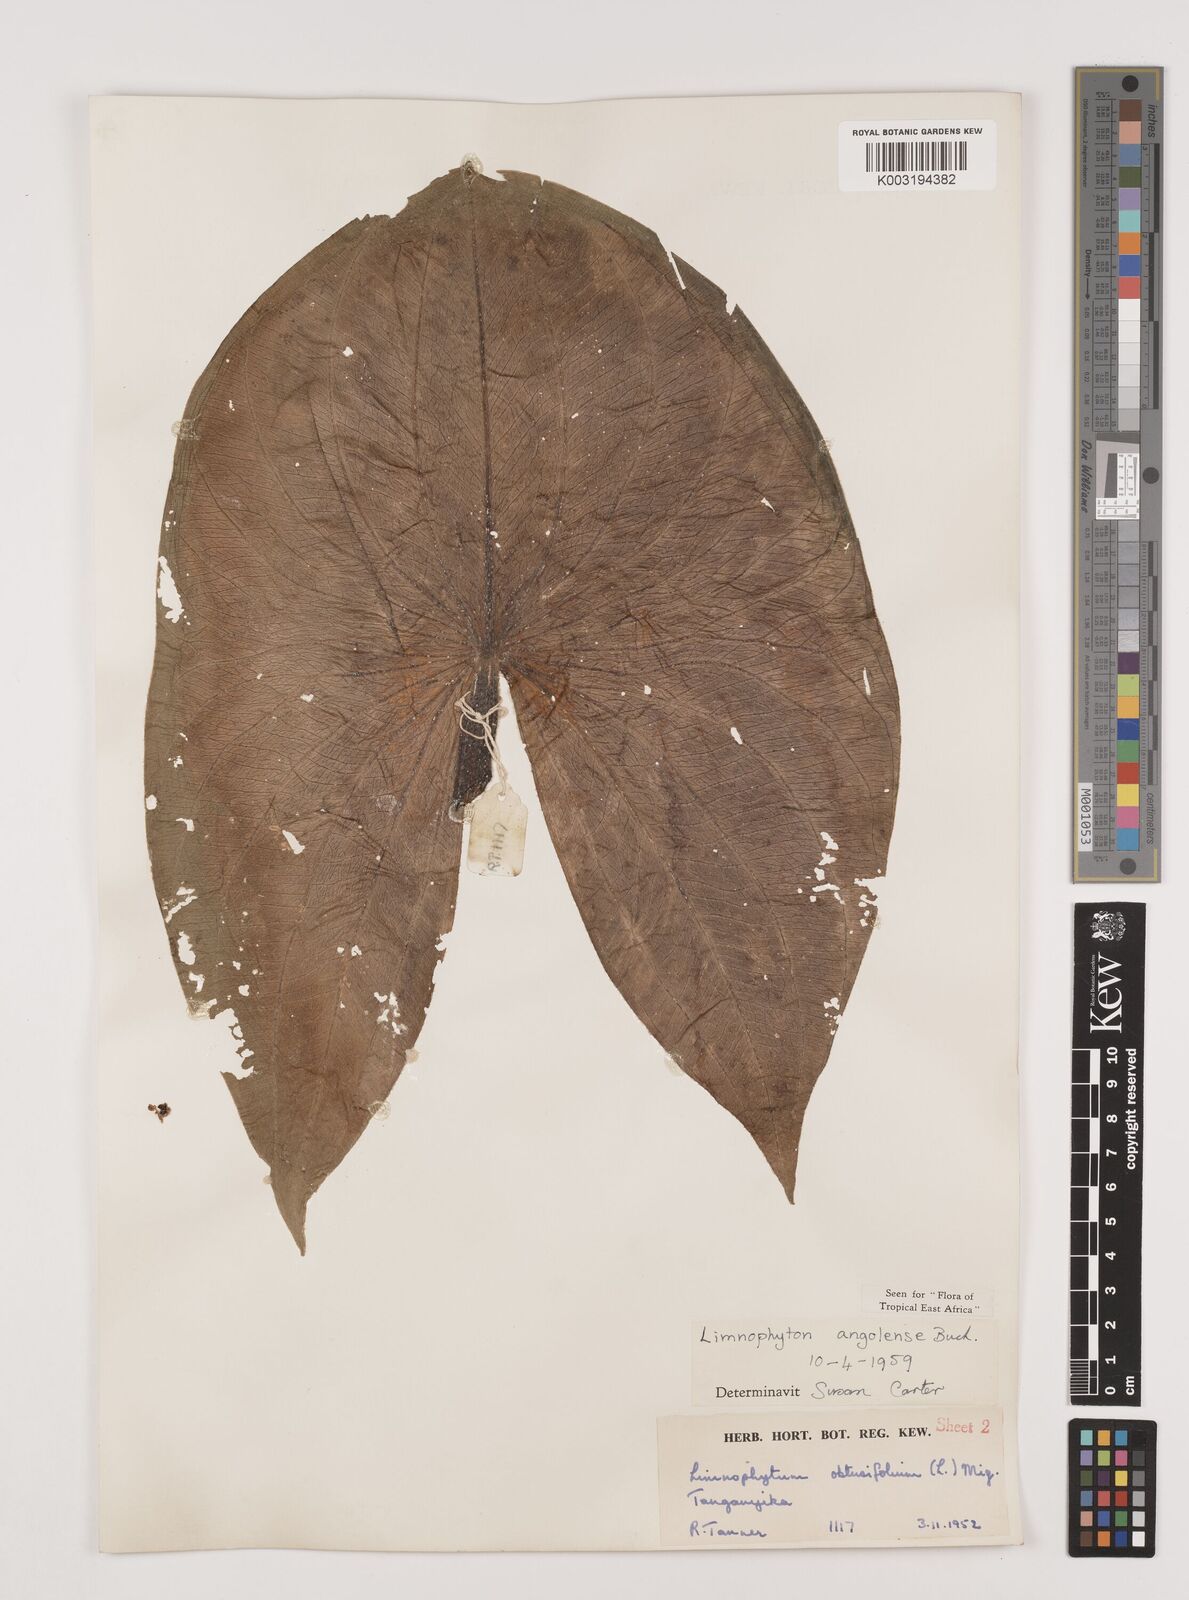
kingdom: Plantae
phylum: Tracheophyta
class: Liliopsida
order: Alismatales
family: Alismataceae
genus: Limnophyton
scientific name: Limnophyton angolense
